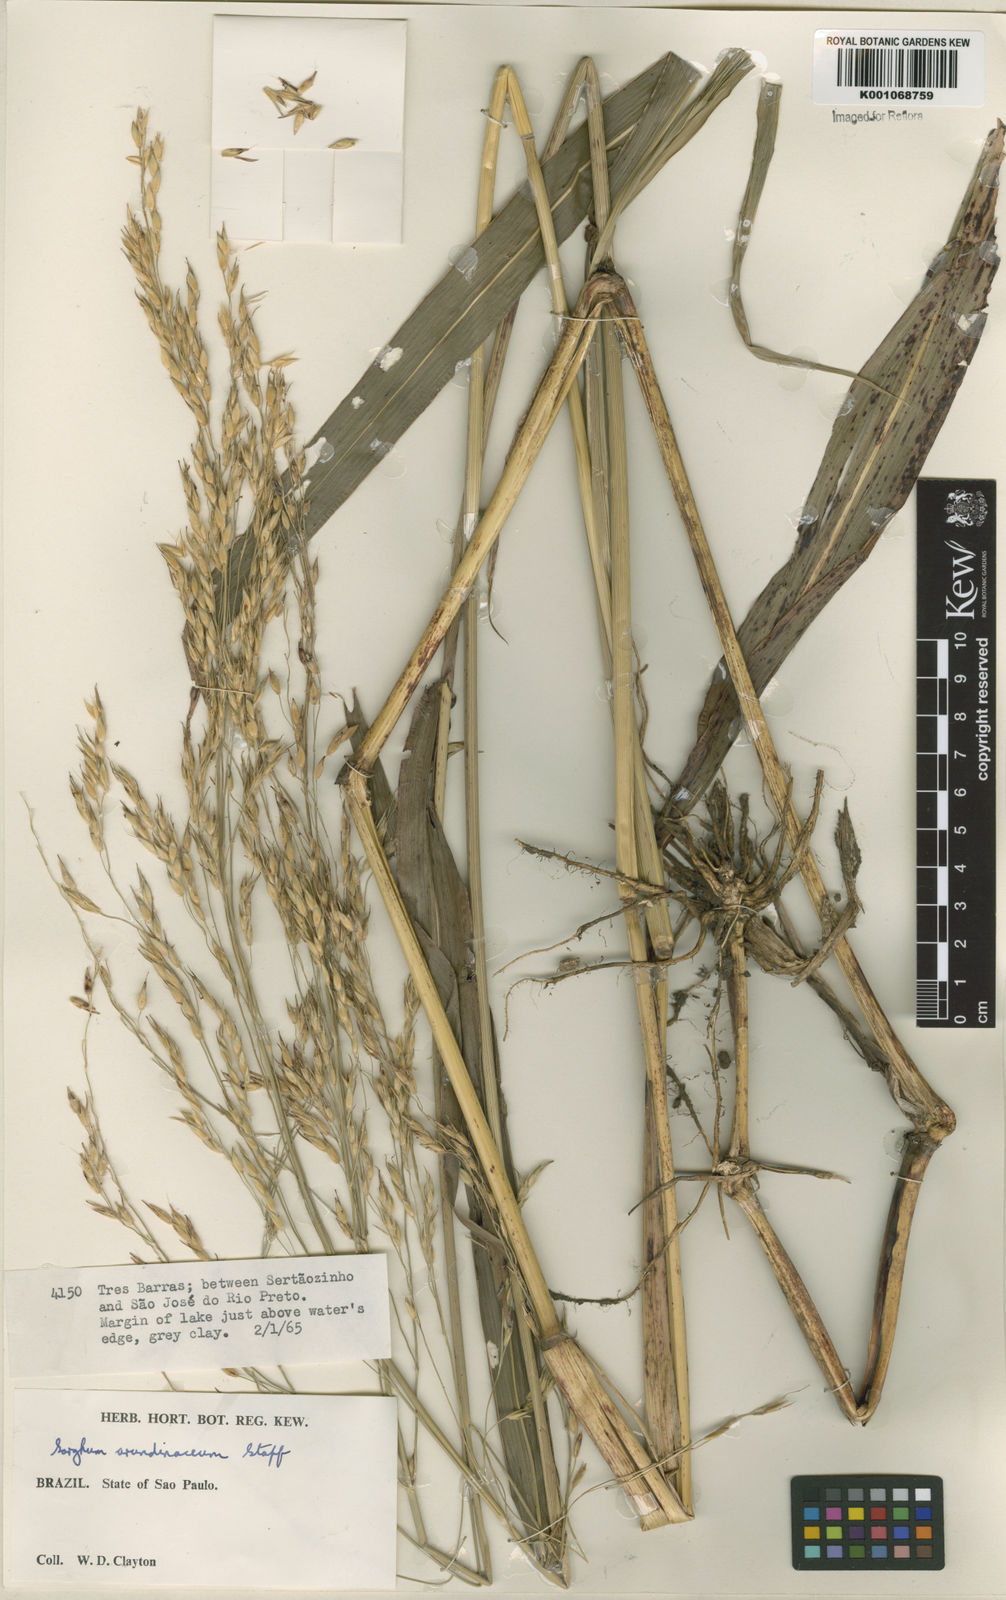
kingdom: Plantae
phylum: Tracheophyta
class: Liliopsida
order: Poales
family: Poaceae
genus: Sorghum
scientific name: Sorghum arundinaceum
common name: Sorghum
